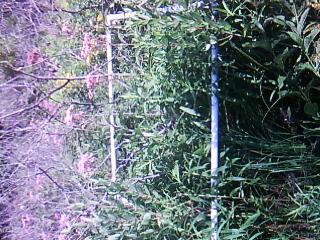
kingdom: Plantae
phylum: Tracheophyta
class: Liliopsida
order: Poales
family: Poaceae
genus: Sorghastrum
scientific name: Sorghastrum nutans
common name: Indian grass
